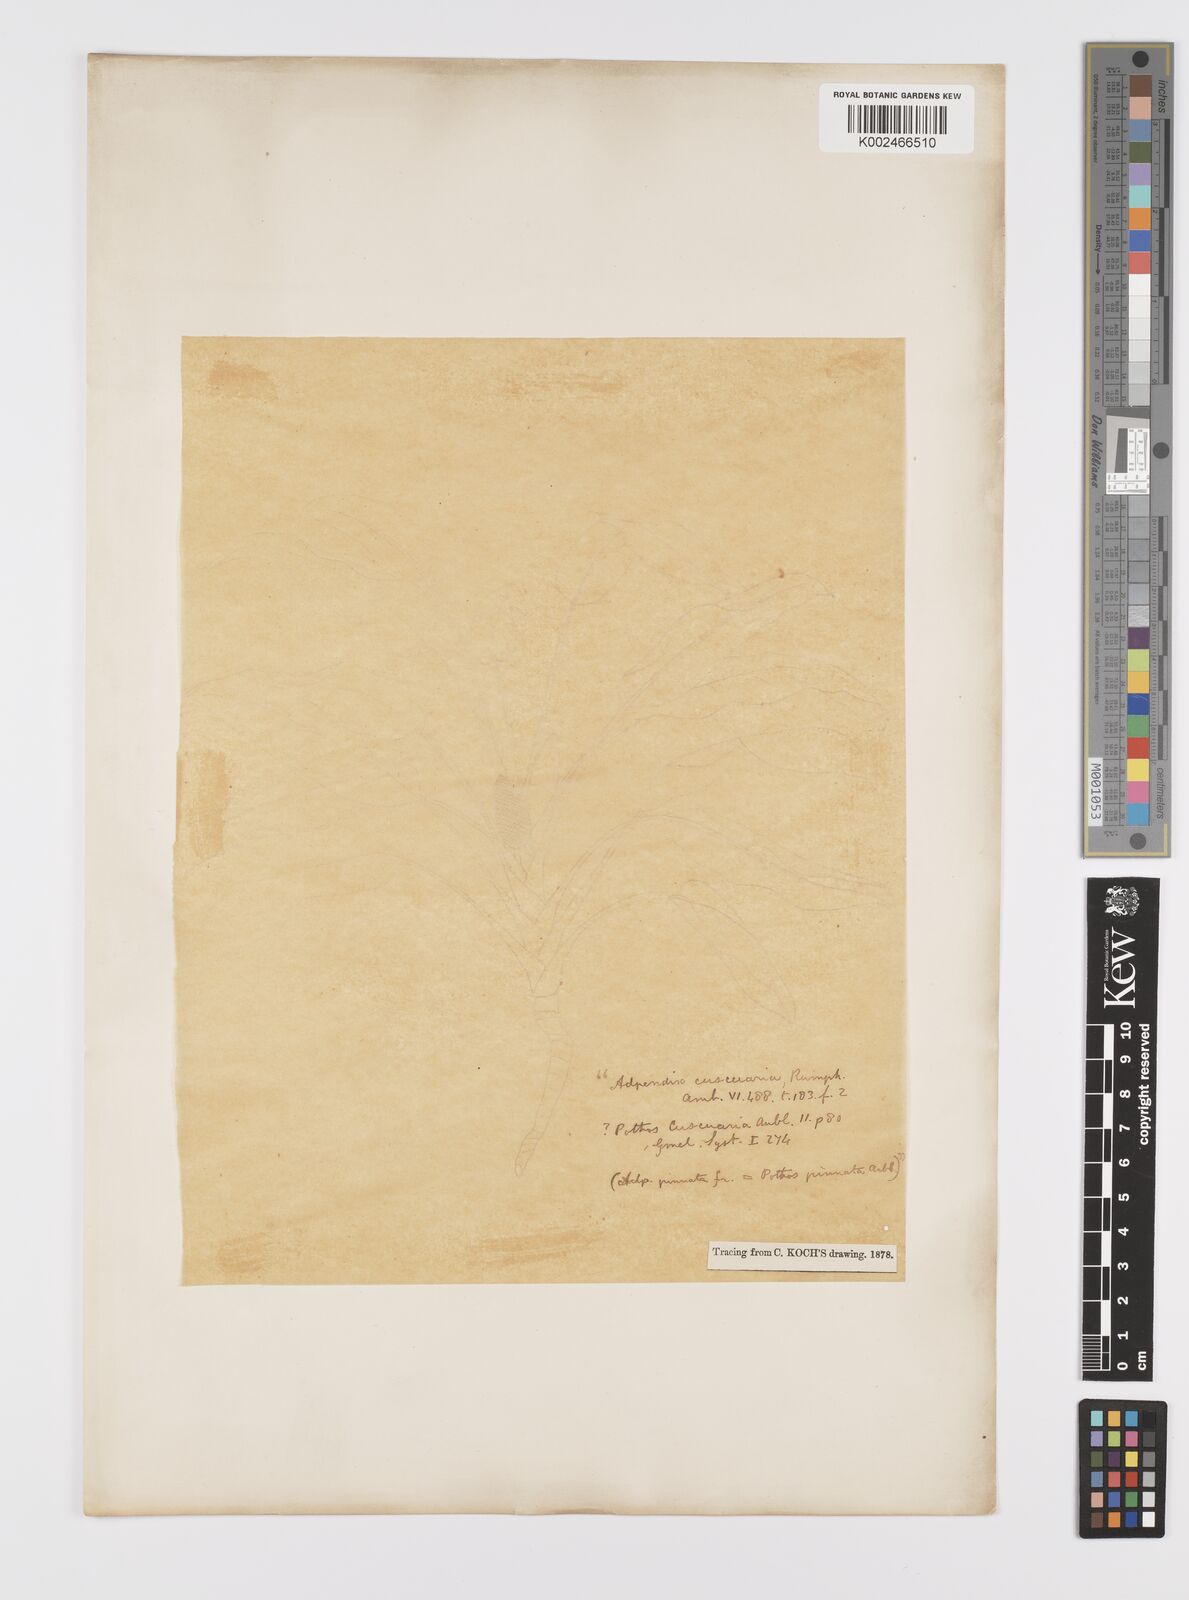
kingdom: Plantae
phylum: Tracheophyta
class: Liliopsida
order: Alismatales
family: Araceae
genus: Scindapsus
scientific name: Scindapsus cuscuaria
